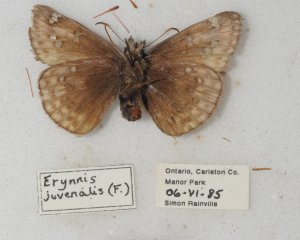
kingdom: Animalia
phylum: Arthropoda
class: Insecta
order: Lepidoptera
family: Hesperiidae
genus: Gesta
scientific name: Gesta
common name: Juvenal's Duskywing
